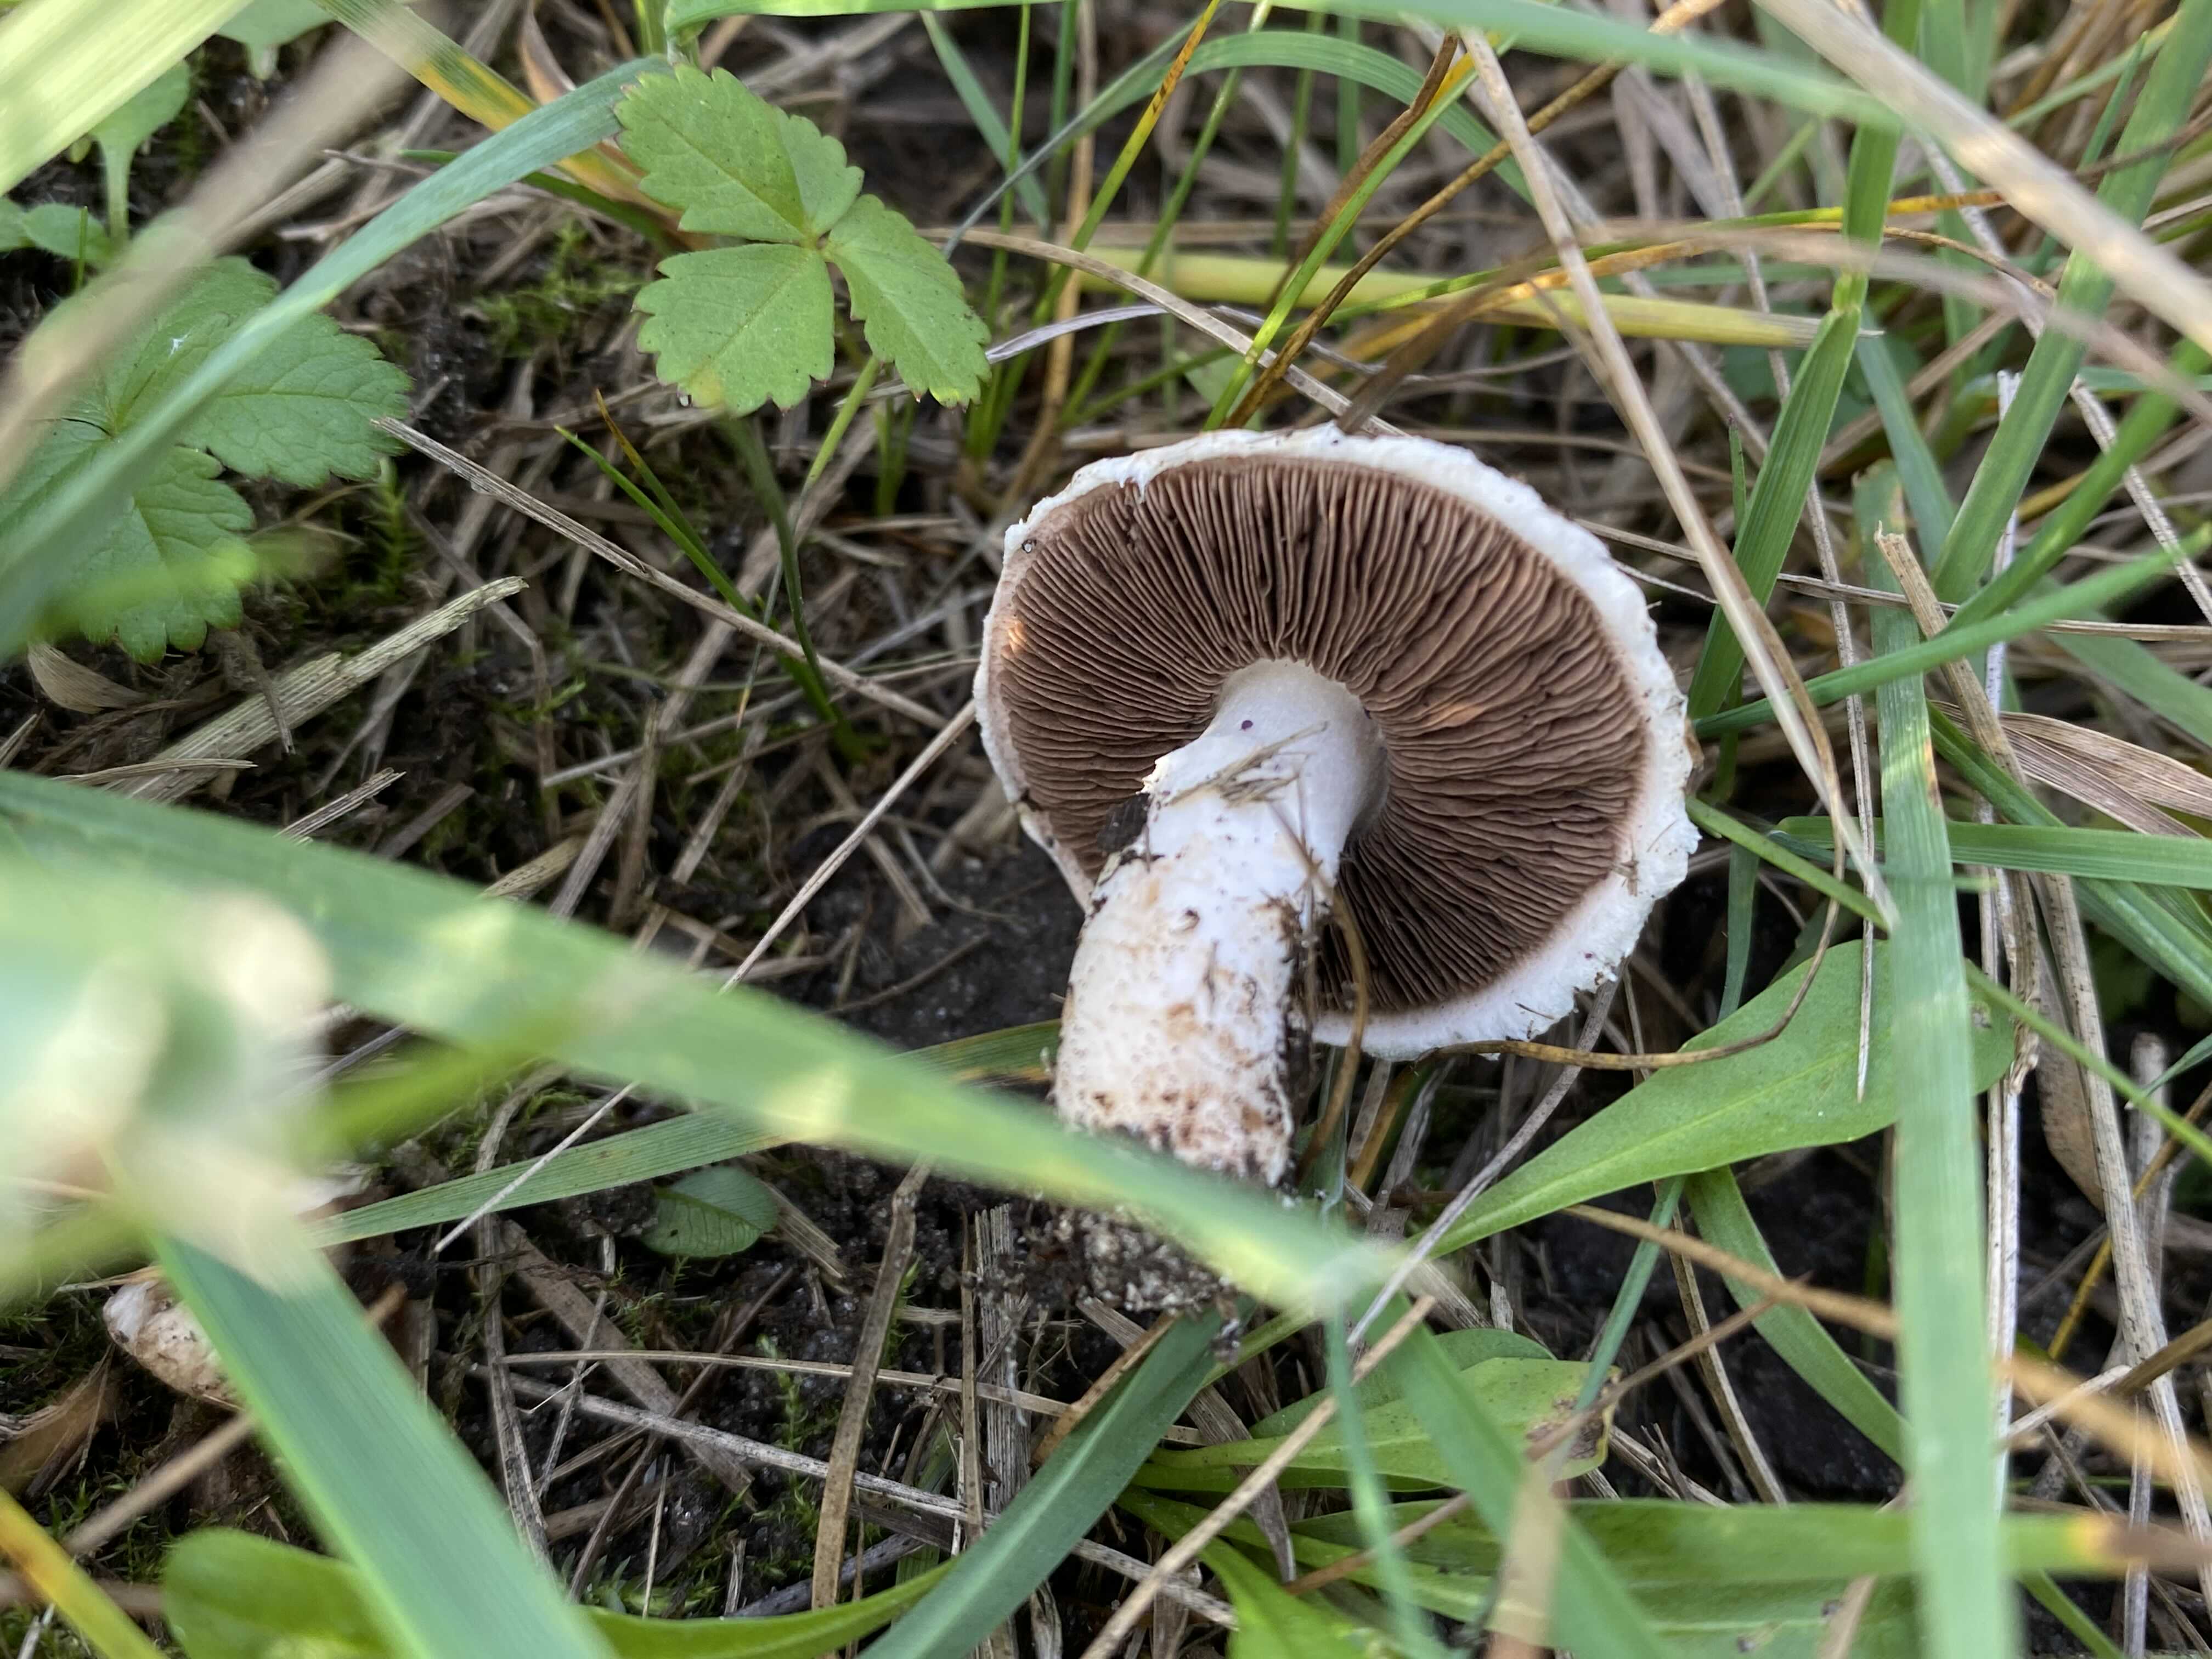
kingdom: Fungi
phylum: Basidiomycota
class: Agaricomycetes
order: Agaricales
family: Agaricaceae
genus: Agaricus
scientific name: Agaricus campestris
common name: mark-champignon
